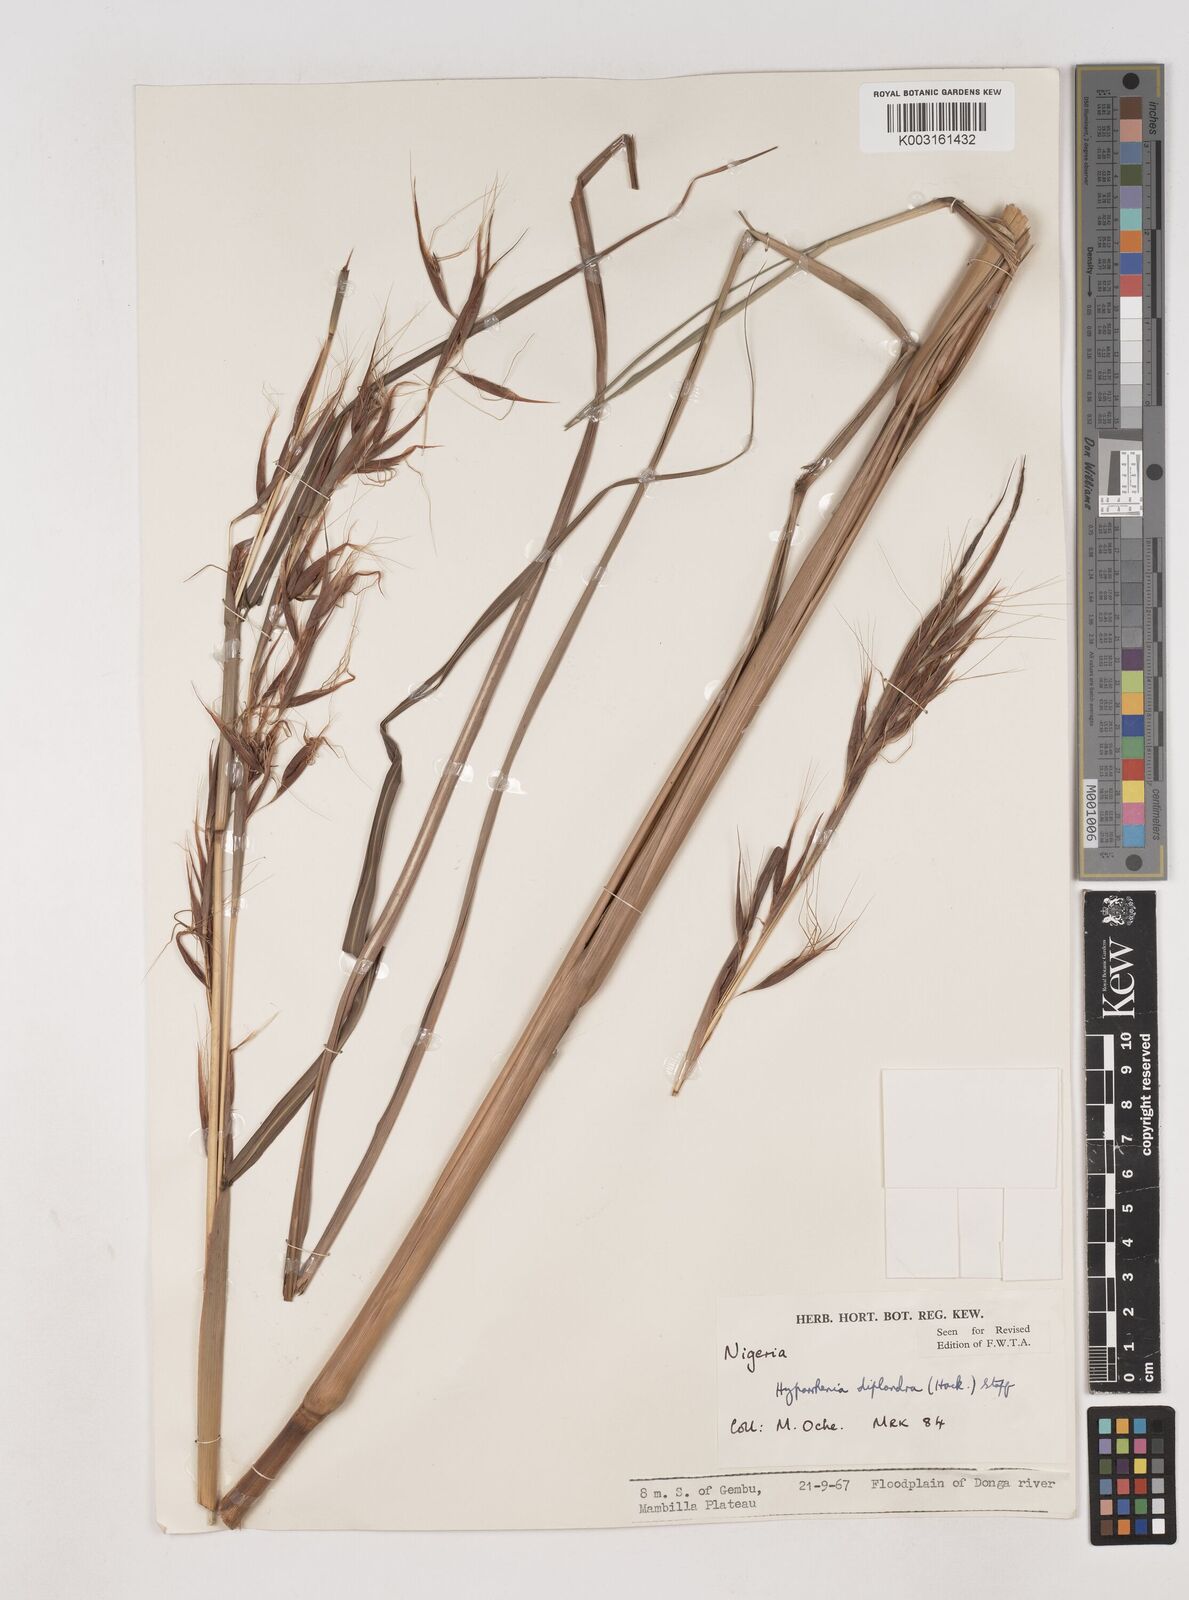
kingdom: Plantae
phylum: Tracheophyta
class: Liliopsida
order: Poales
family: Poaceae
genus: Hyparrhenia
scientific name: Hyparrhenia diplandra
